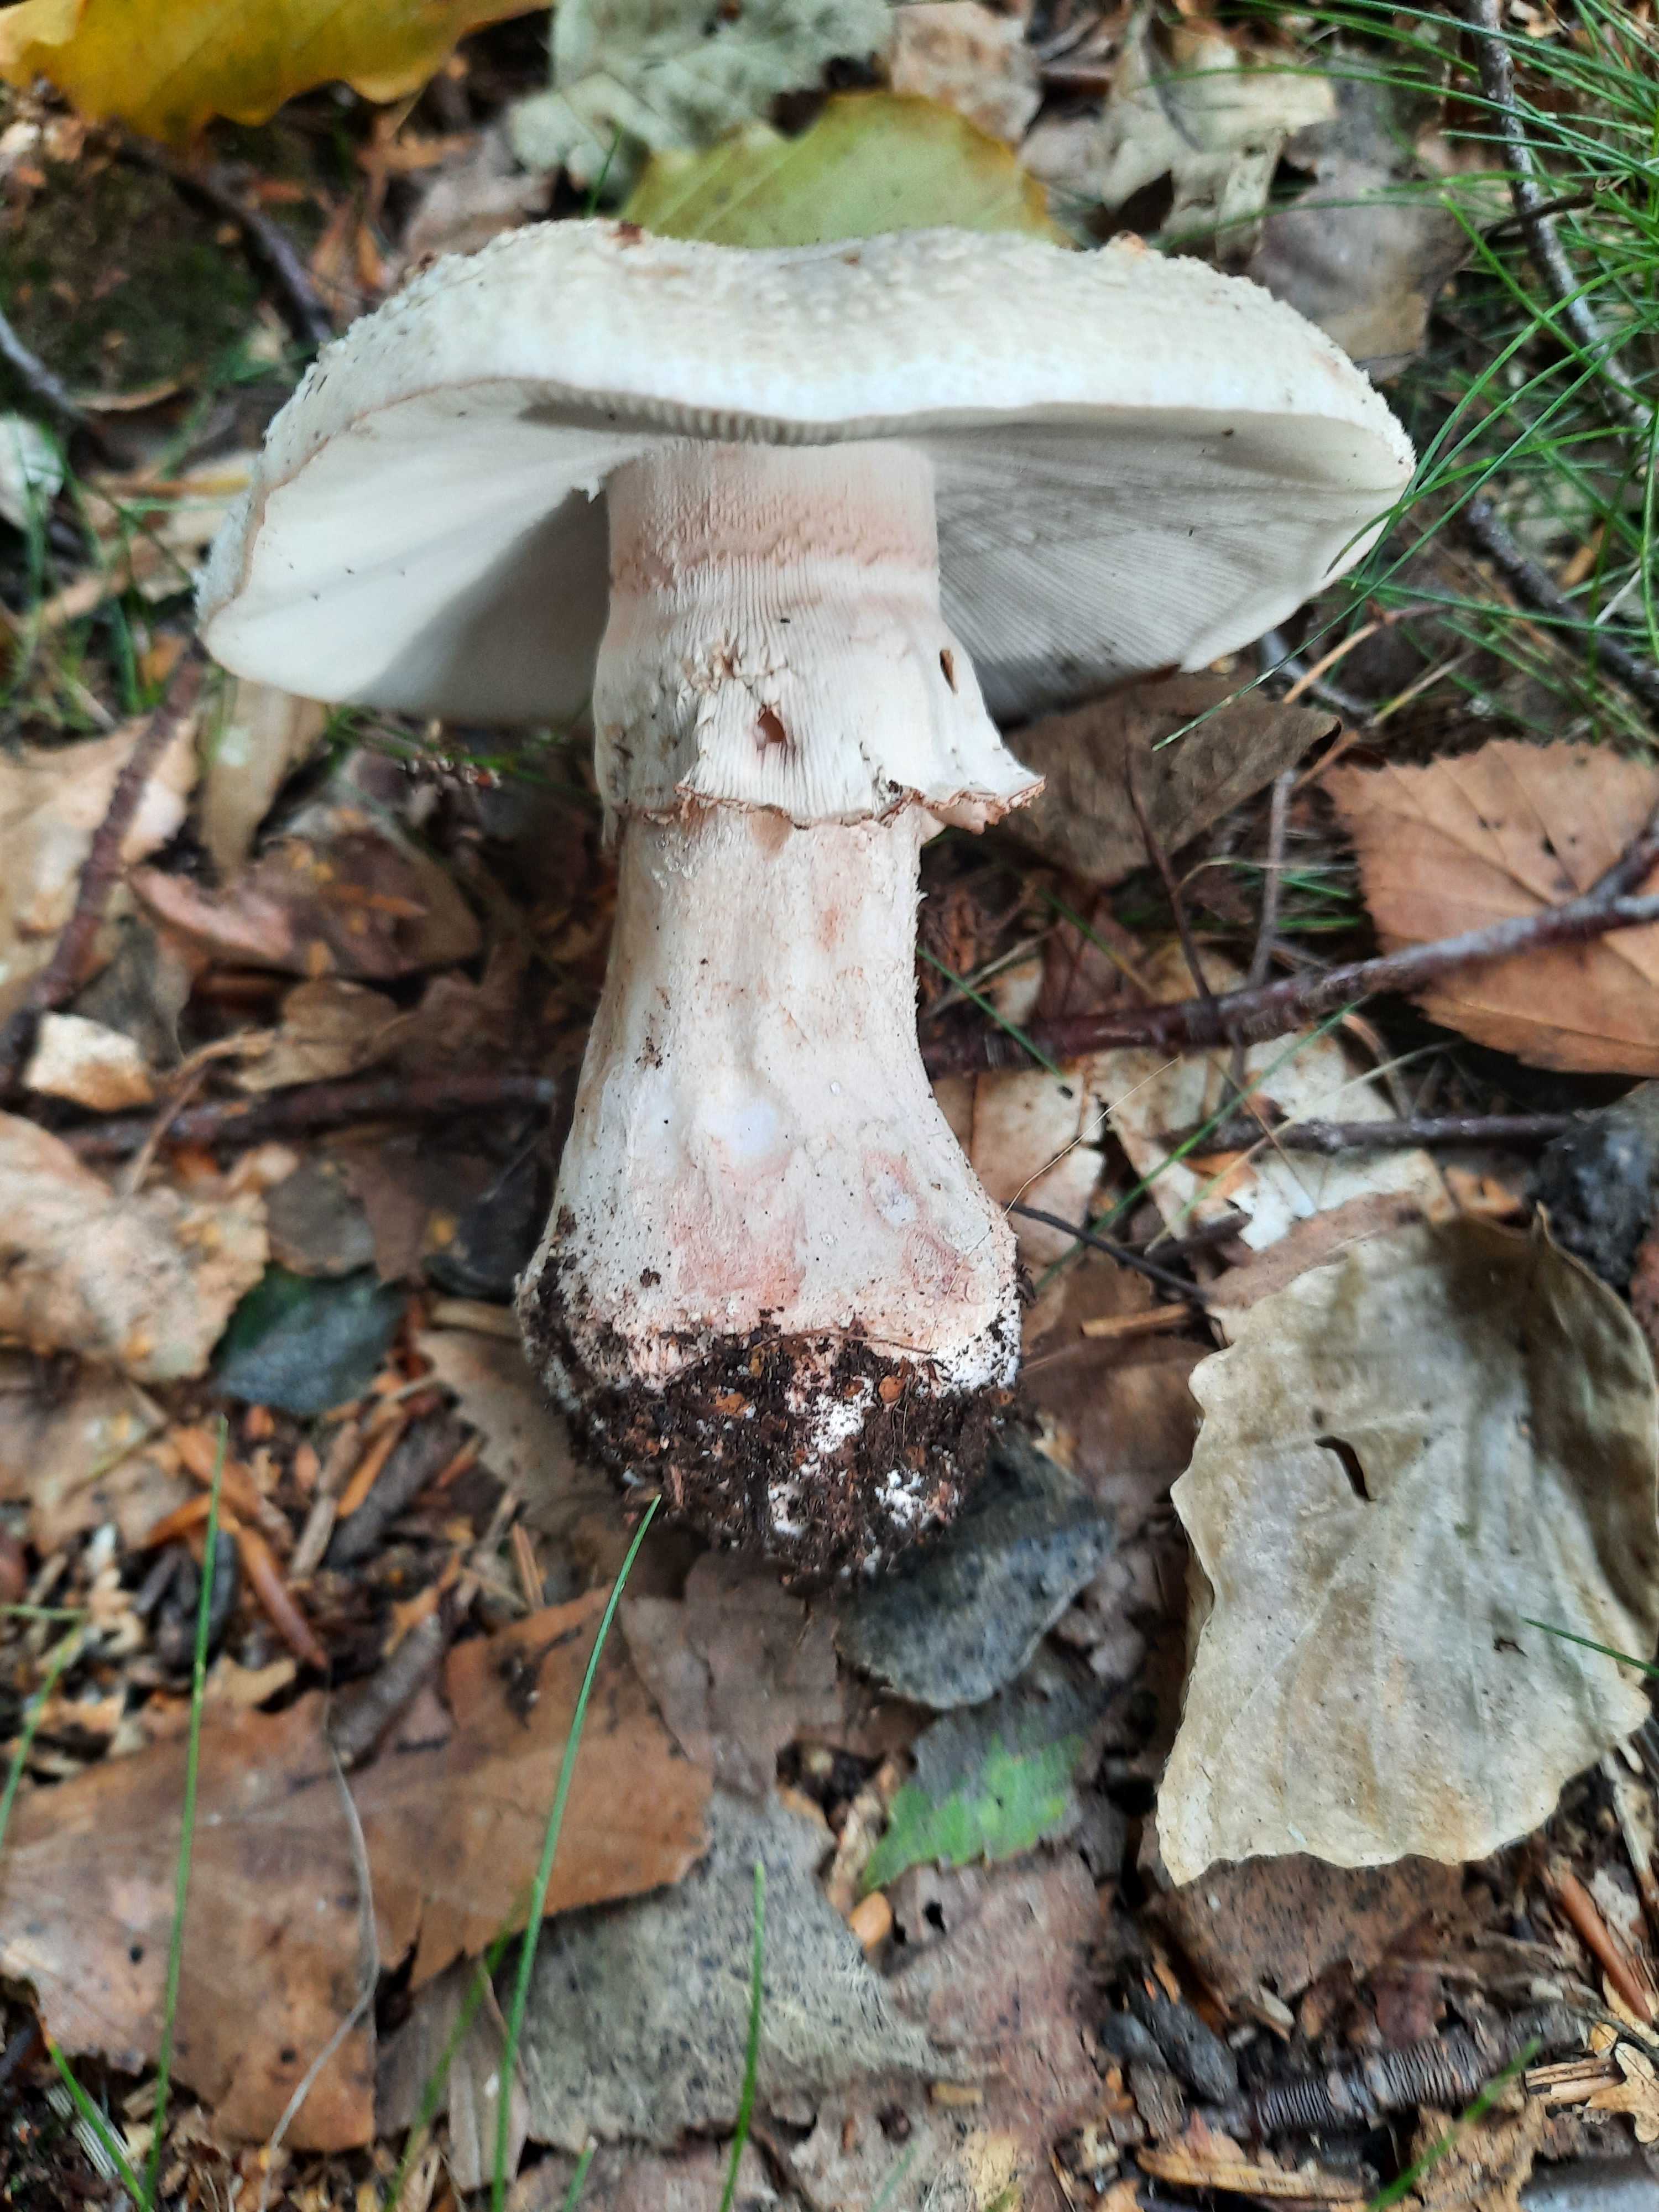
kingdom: Fungi
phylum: Basidiomycota
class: Agaricomycetes
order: Agaricales
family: Amanitaceae
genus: Amanita
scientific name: Amanita rubescens
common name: rødmende fluesvamp
